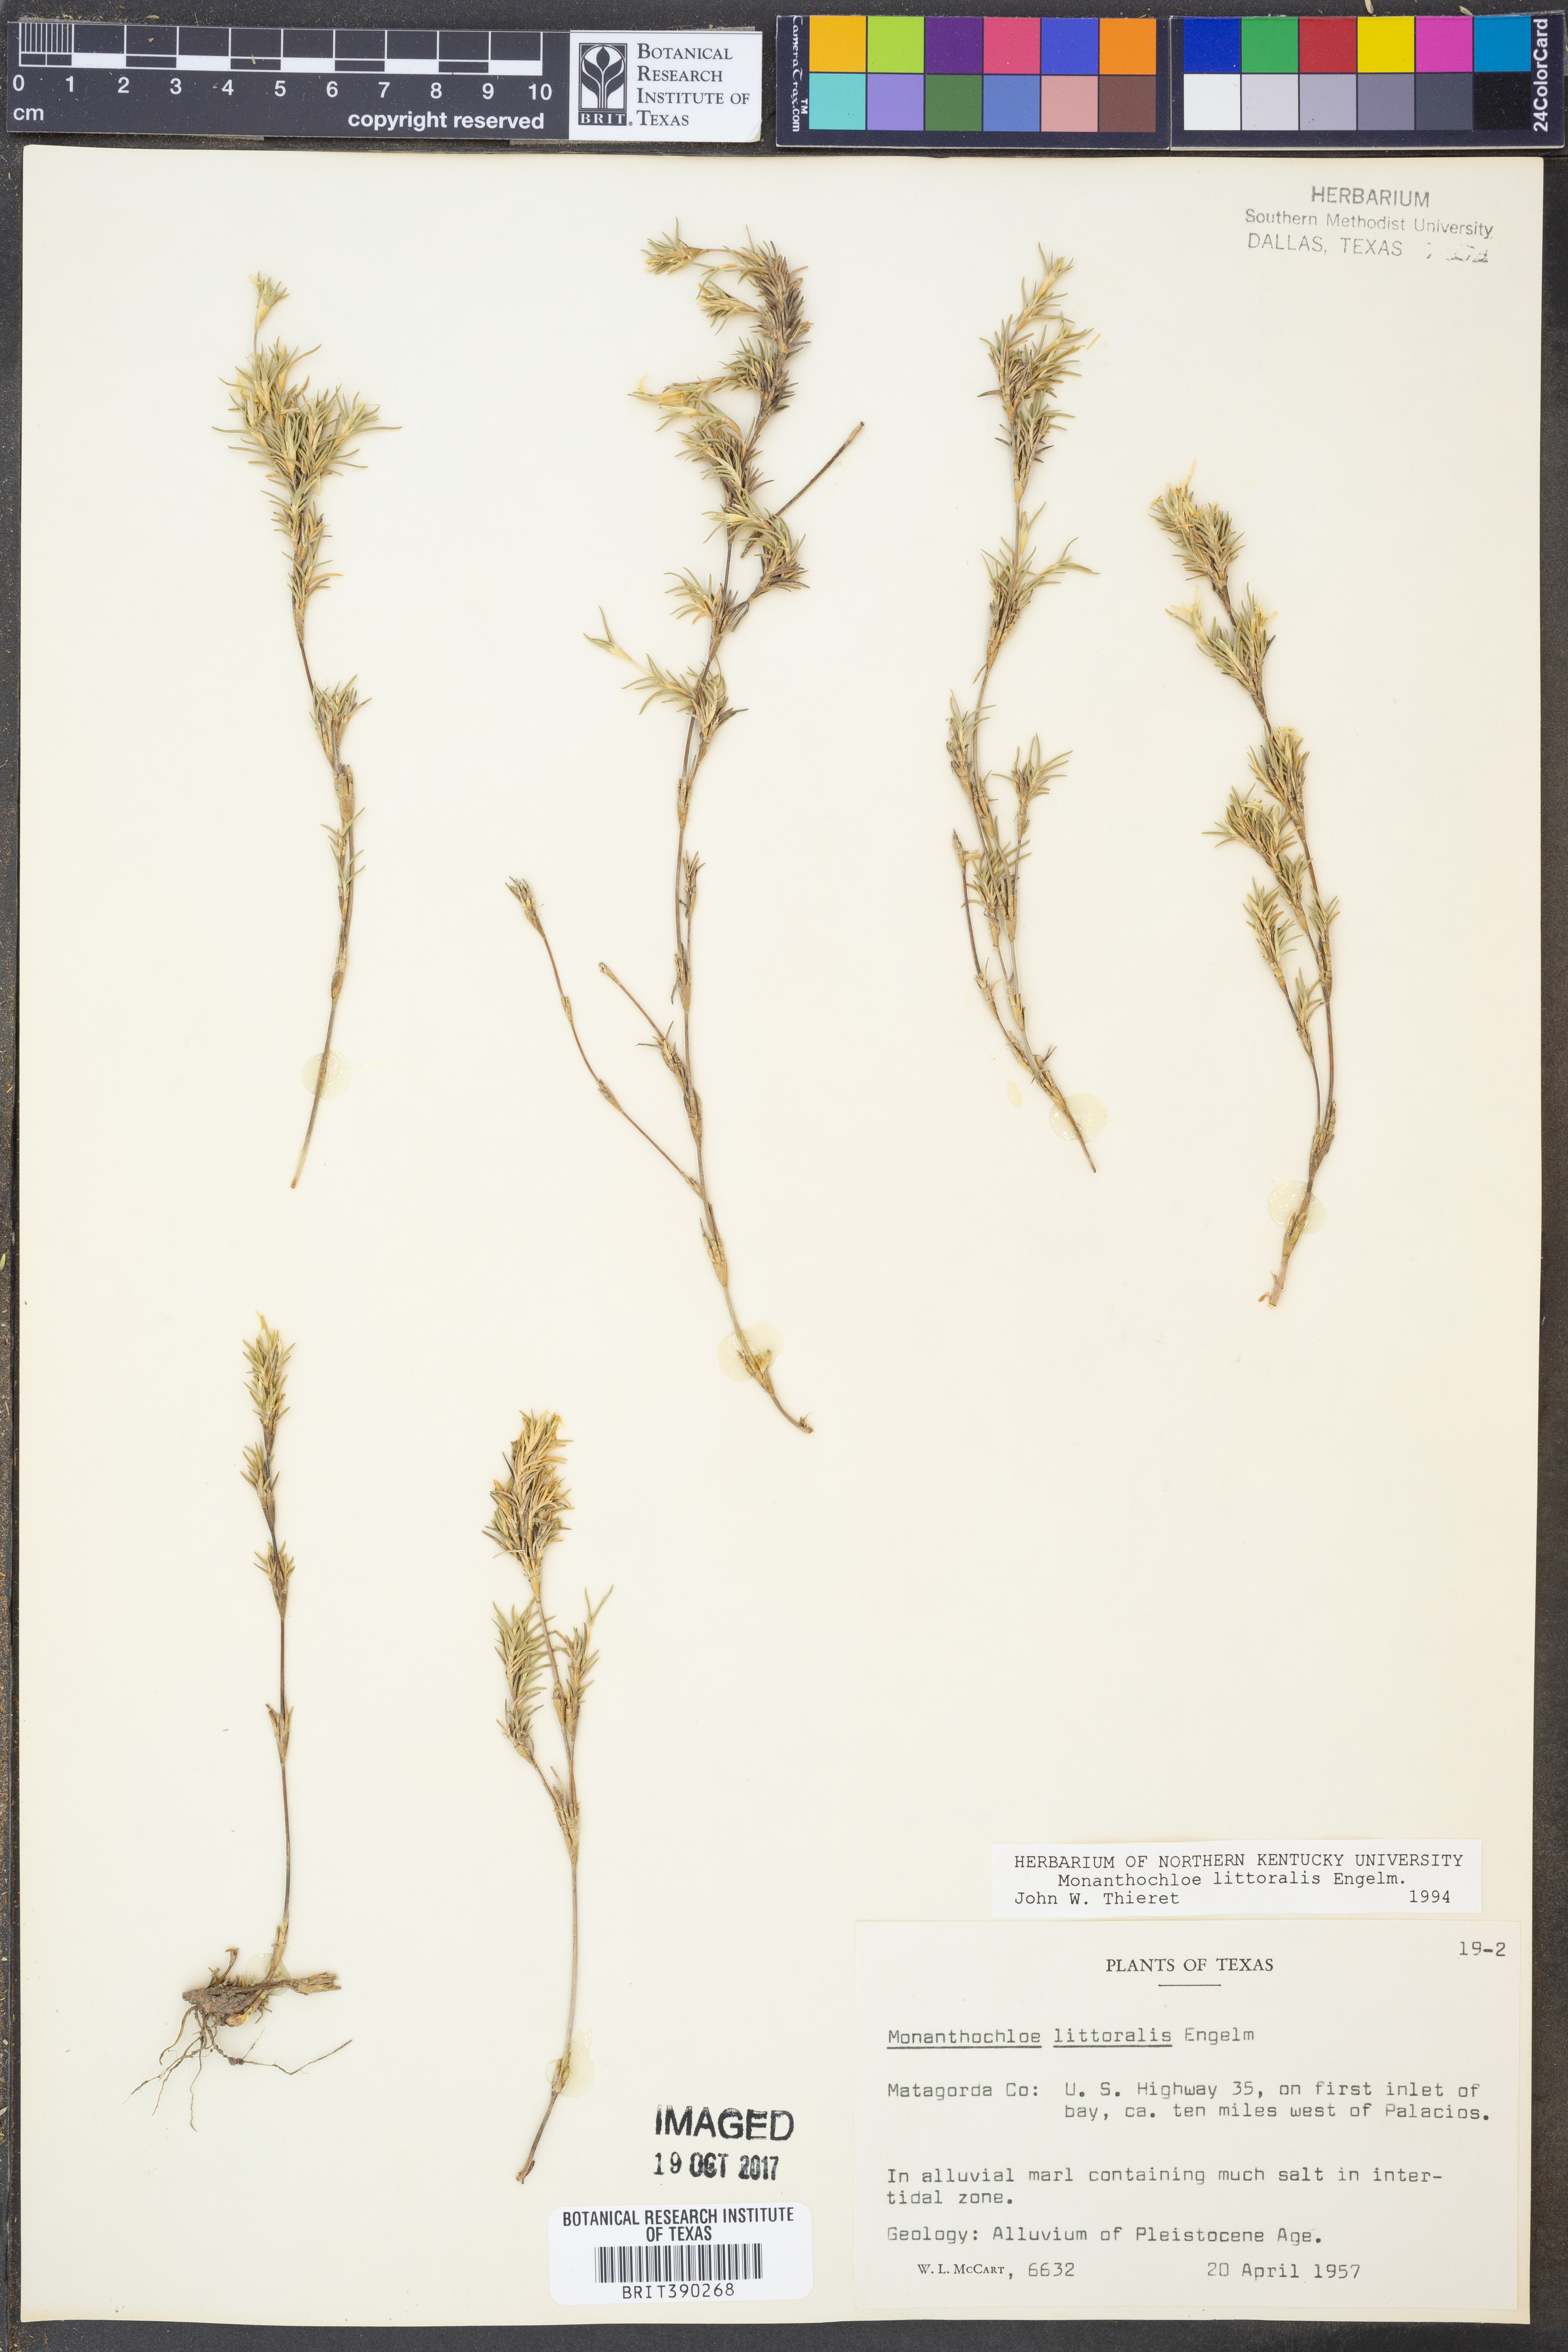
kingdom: Plantae
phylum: Tracheophyta
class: Liliopsida
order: Poales
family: Poaceae
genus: Distichlis
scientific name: Distichlis littoralis
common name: Shore grass
